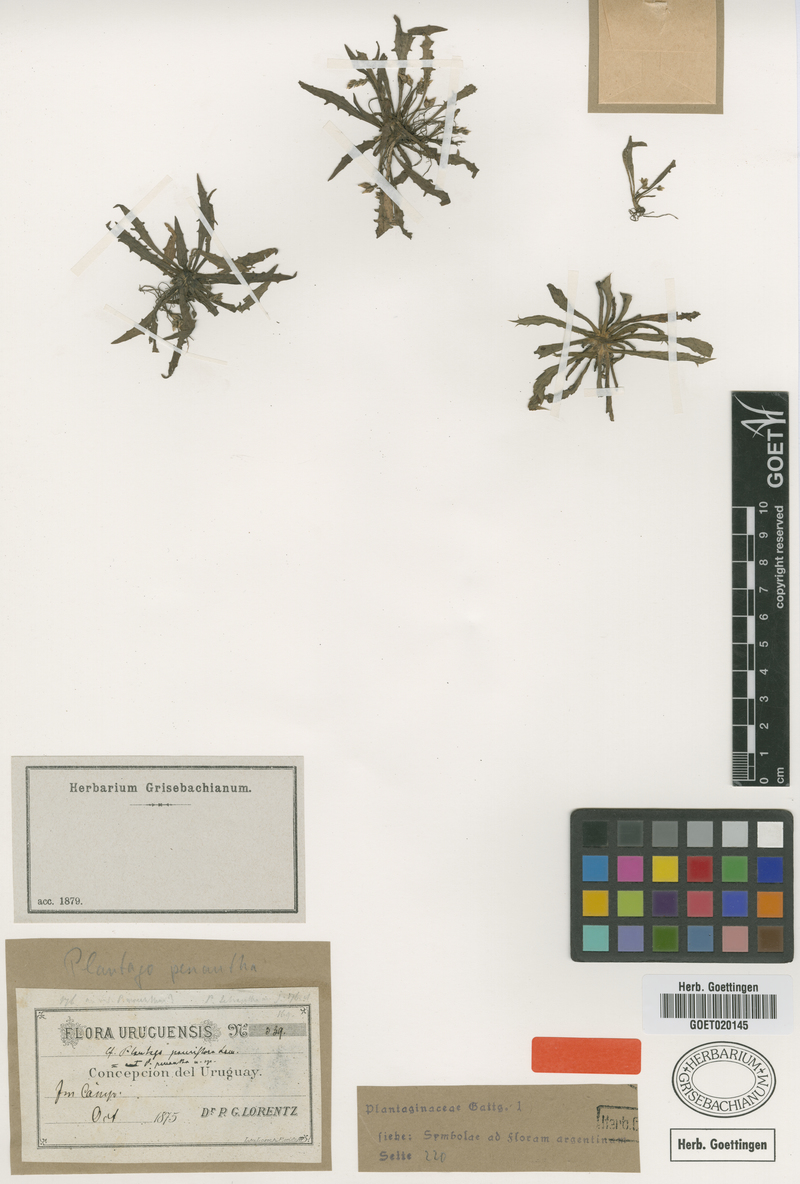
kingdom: Plantae
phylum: Tracheophyta
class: Magnoliopsida
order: Lamiales
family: Plantaginaceae
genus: Plantago
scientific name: Plantago penantha
